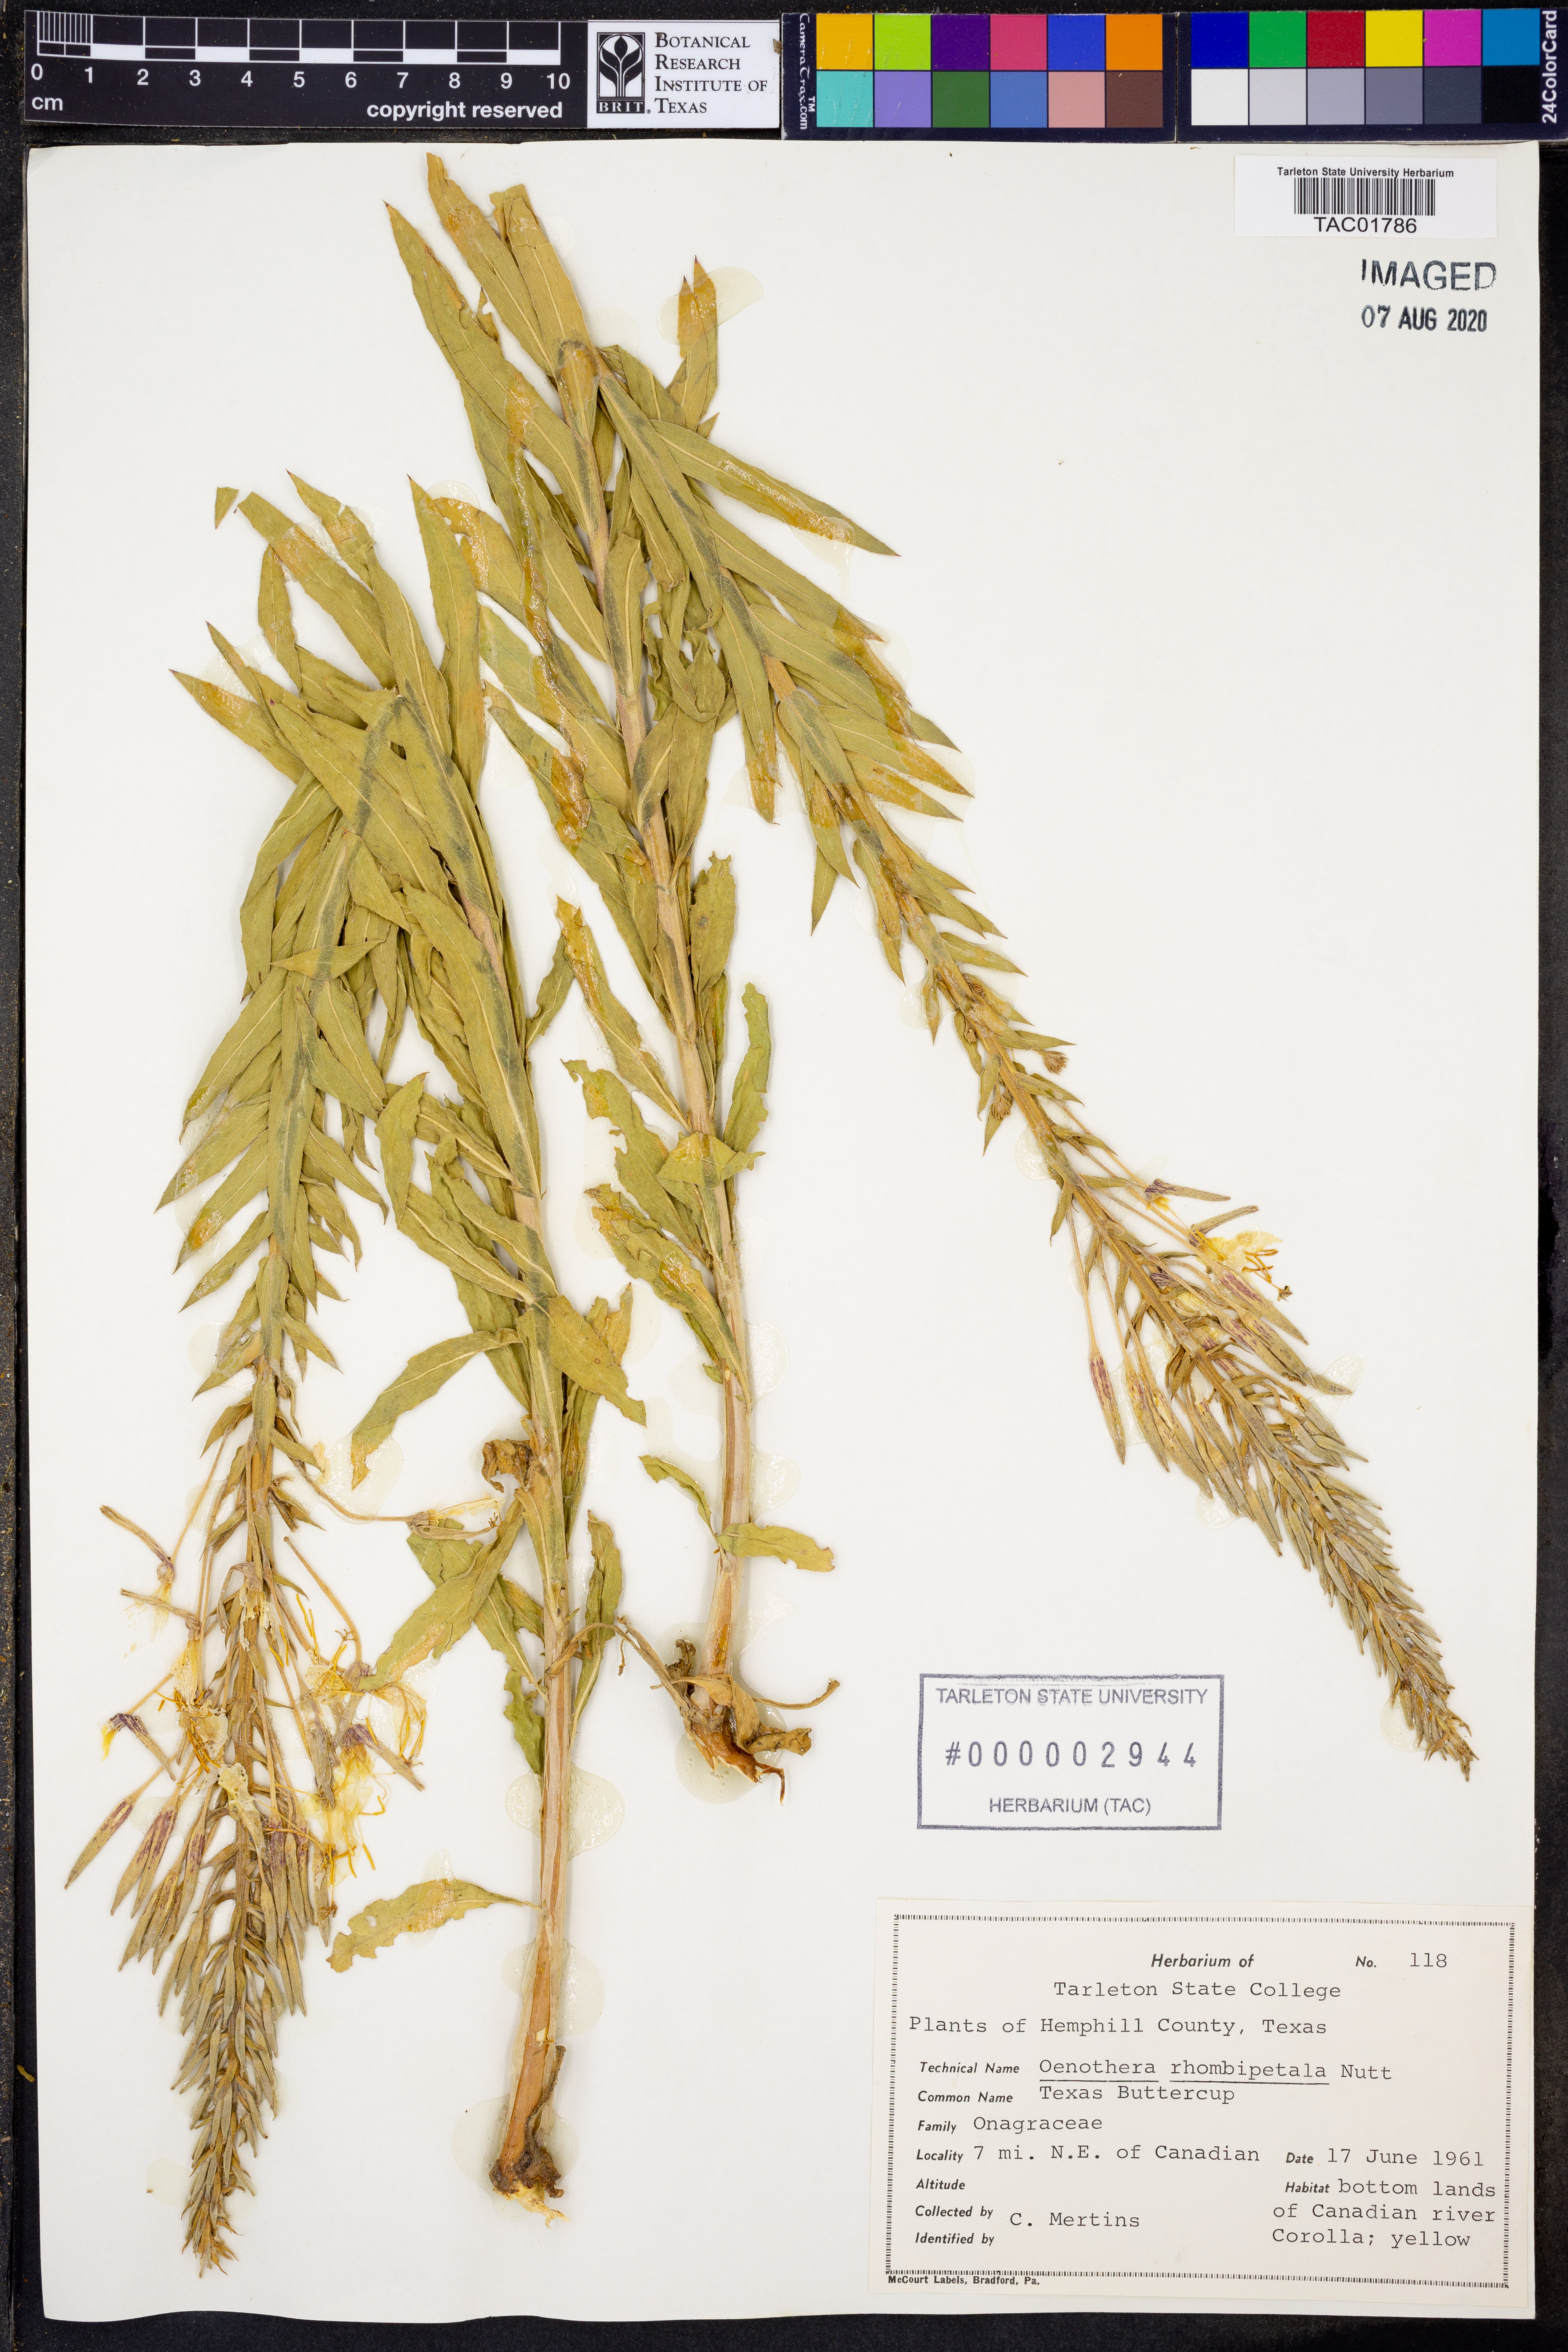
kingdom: Plantae
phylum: Tracheophyta
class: Magnoliopsida
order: Myrtales
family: Onagraceae
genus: Oenothera
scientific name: Oenothera rhombipetala
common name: Four-points evening-primrose
